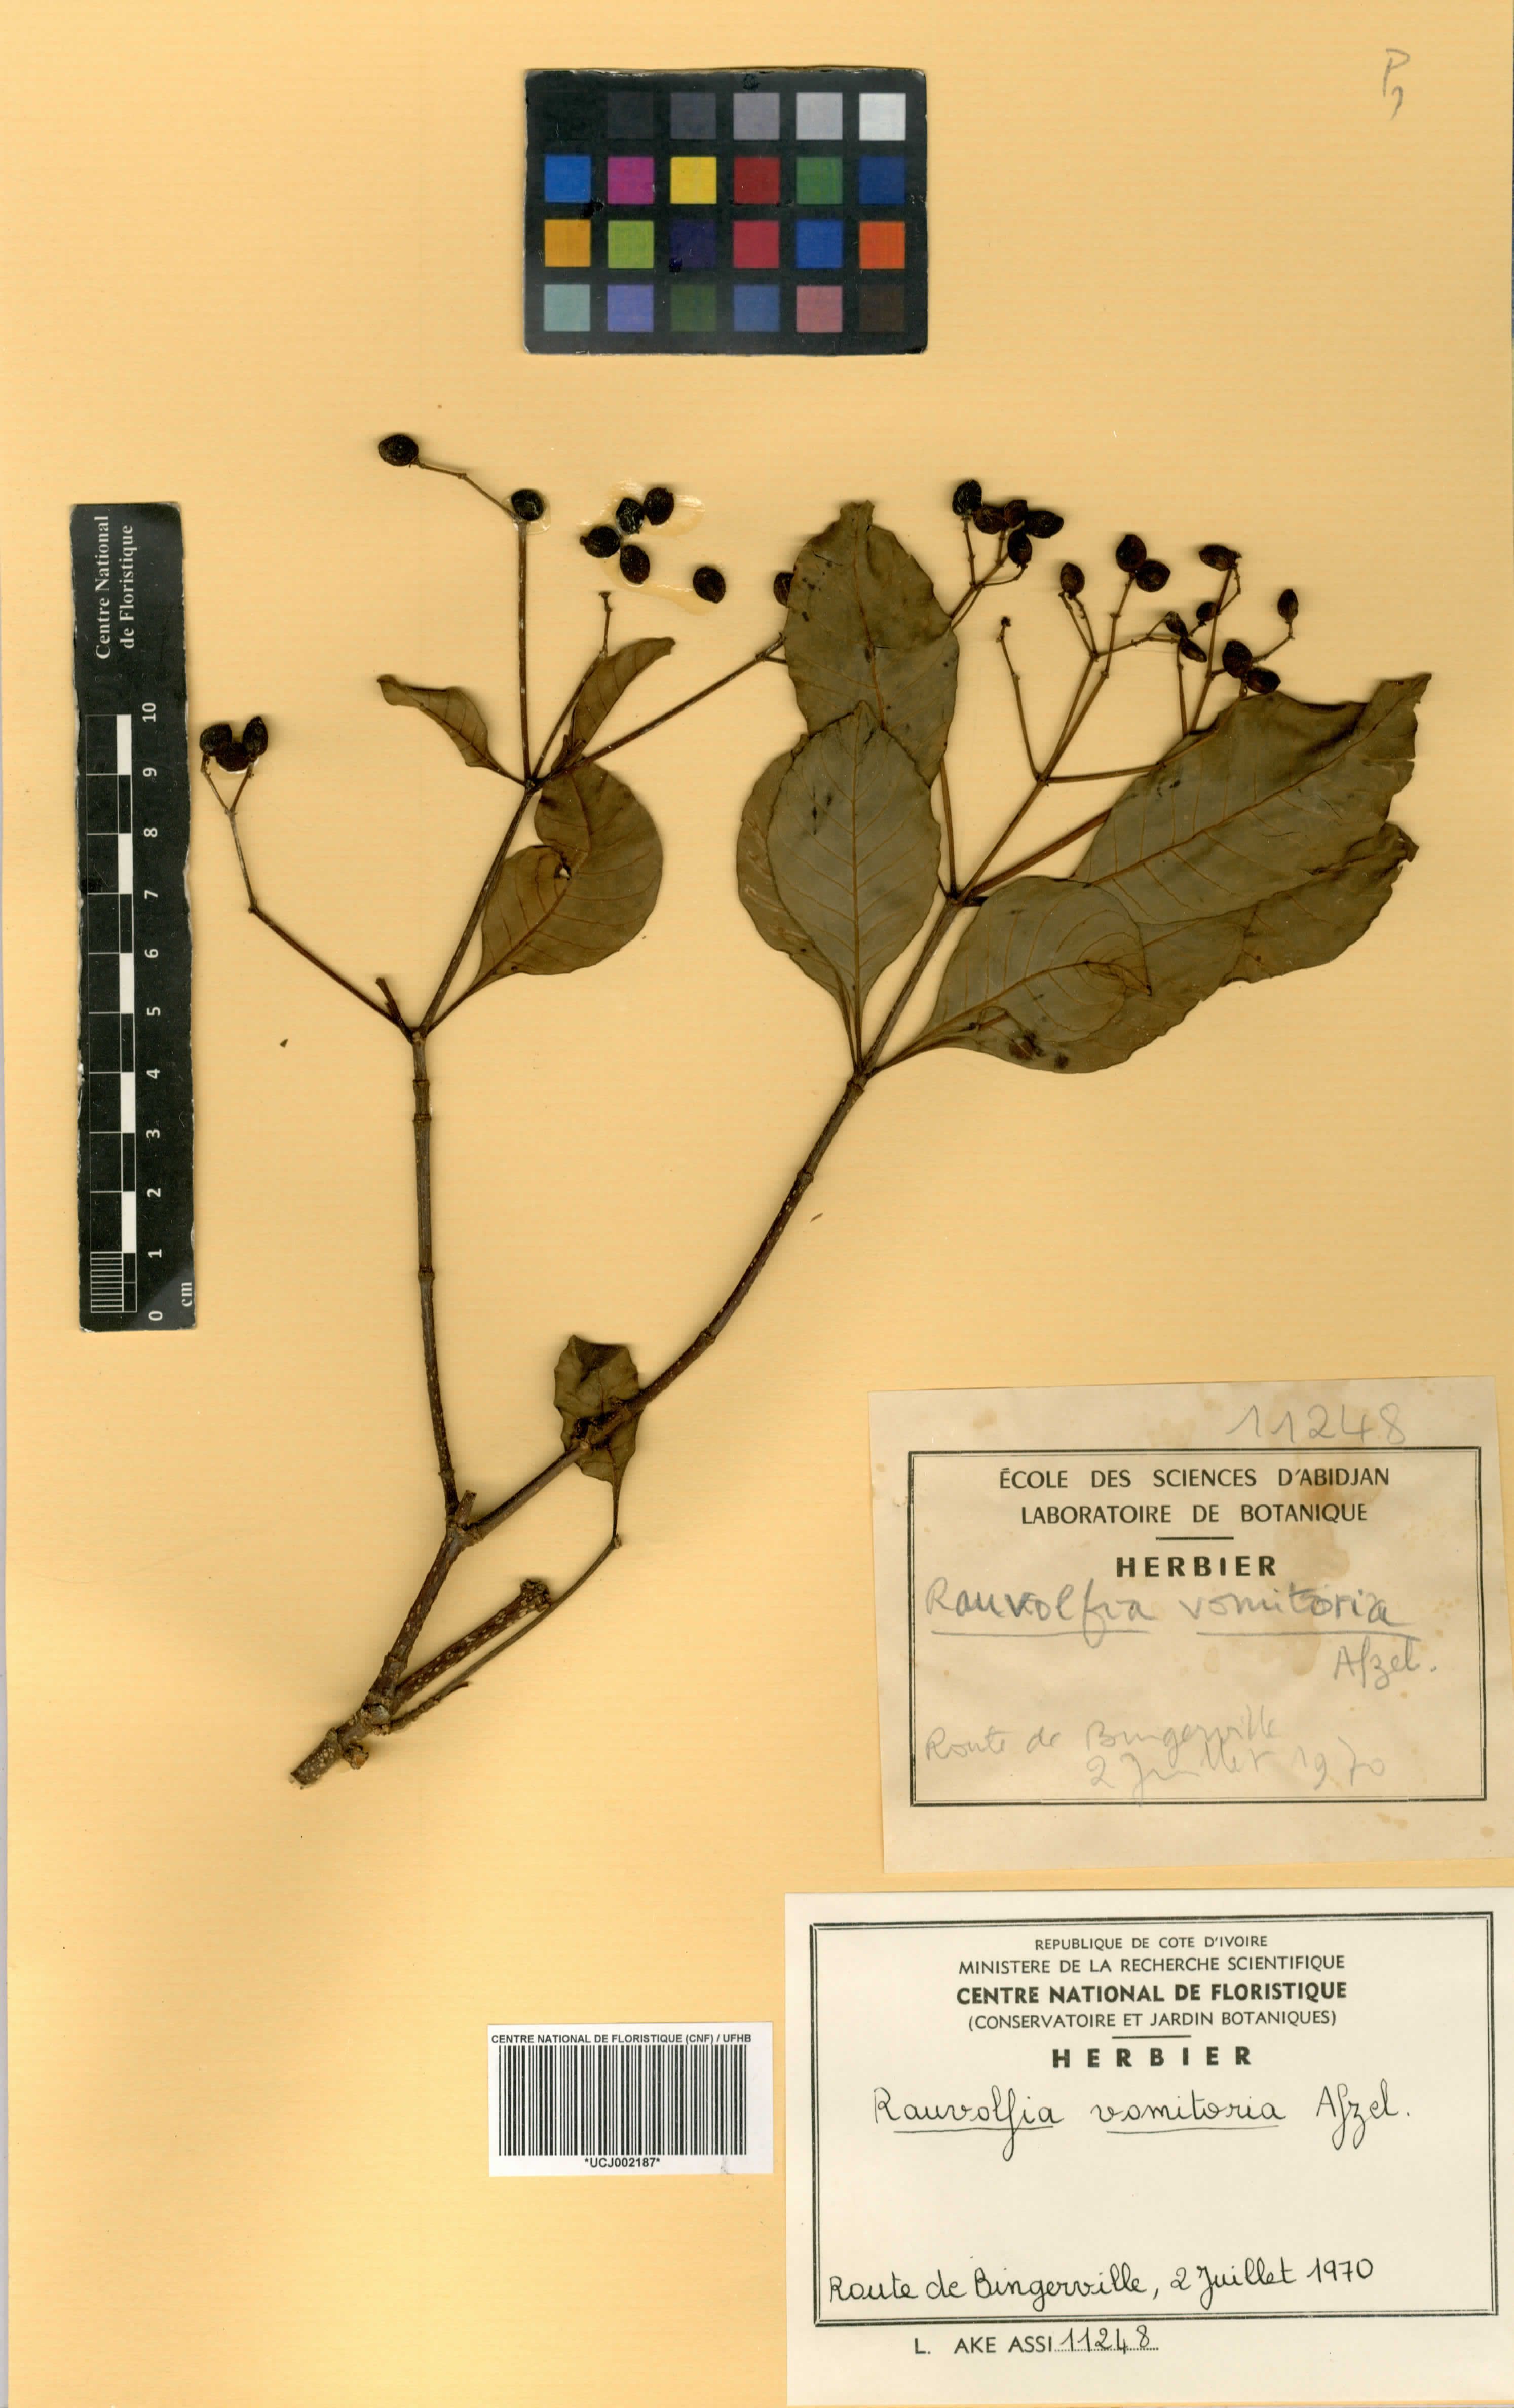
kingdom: Plantae
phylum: Tracheophyta
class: Magnoliopsida
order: Gentianales
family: Apocynaceae
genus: Rauvolfia
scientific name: Rauvolfia vomitoria
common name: Poison devil's-pepper
